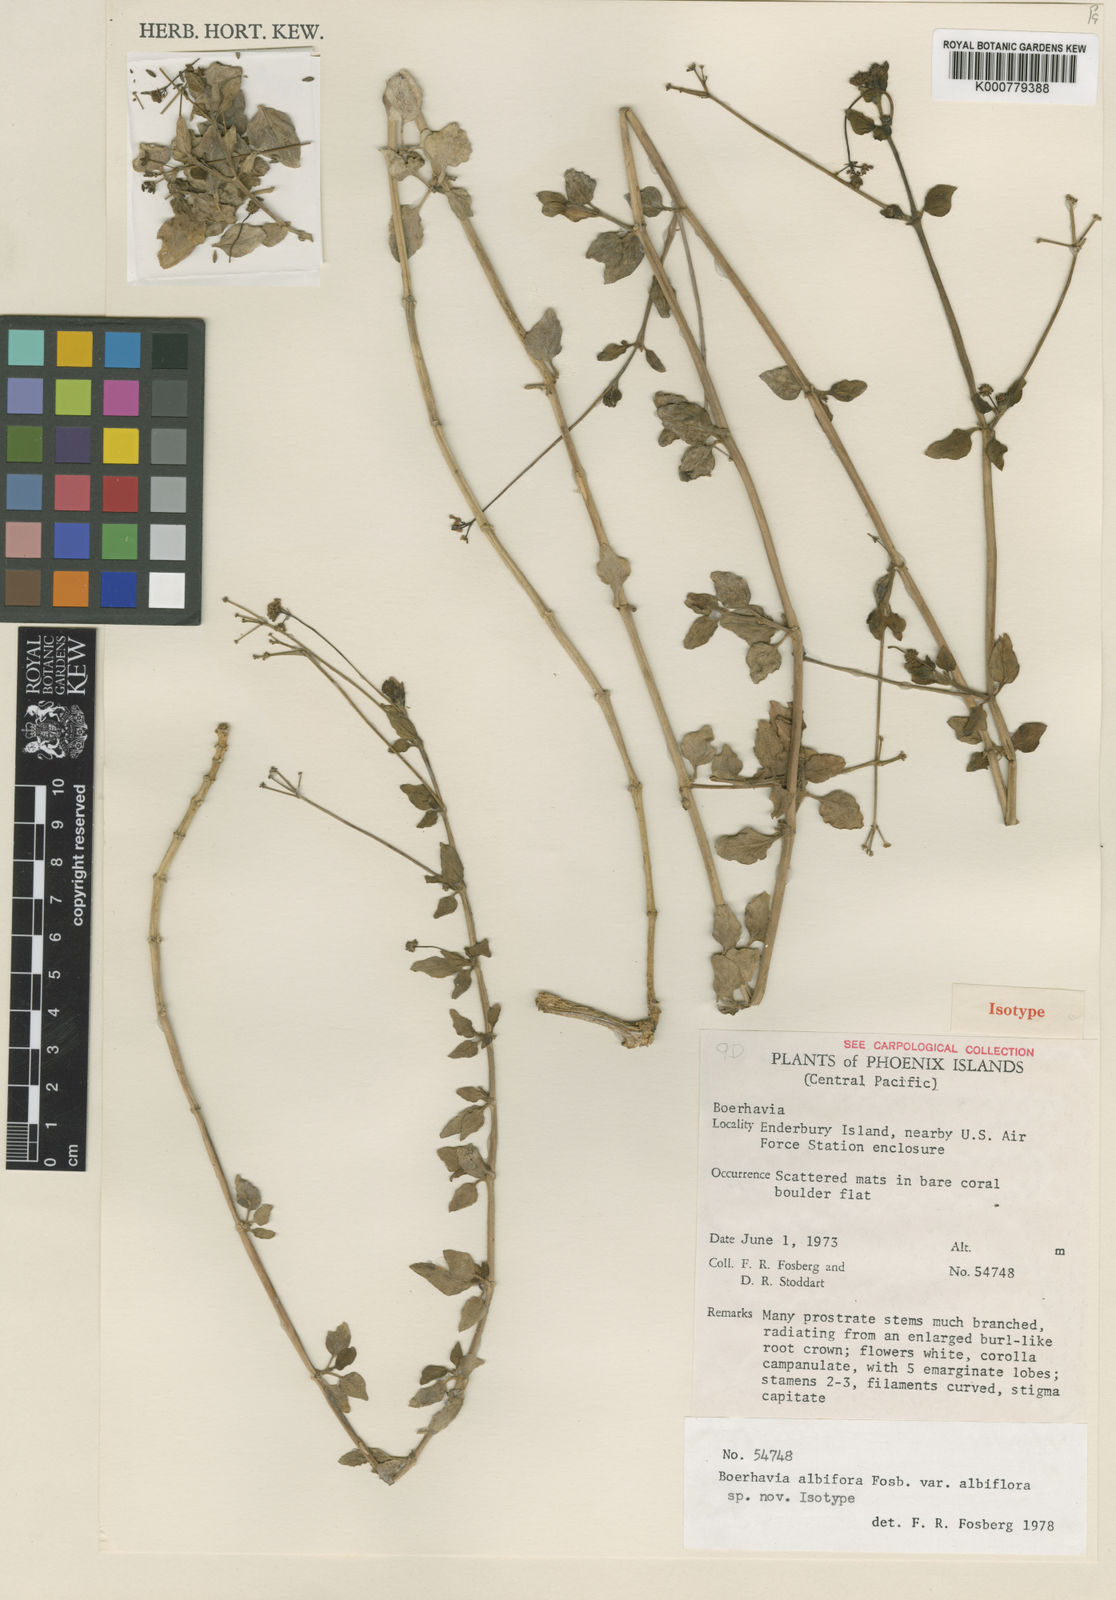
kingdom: Plantae
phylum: Tracheophyta
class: Magnoliopsida
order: Caryophyllales
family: Nyctaginaceae
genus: Boerhavia
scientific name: Boerhavia albiflora
